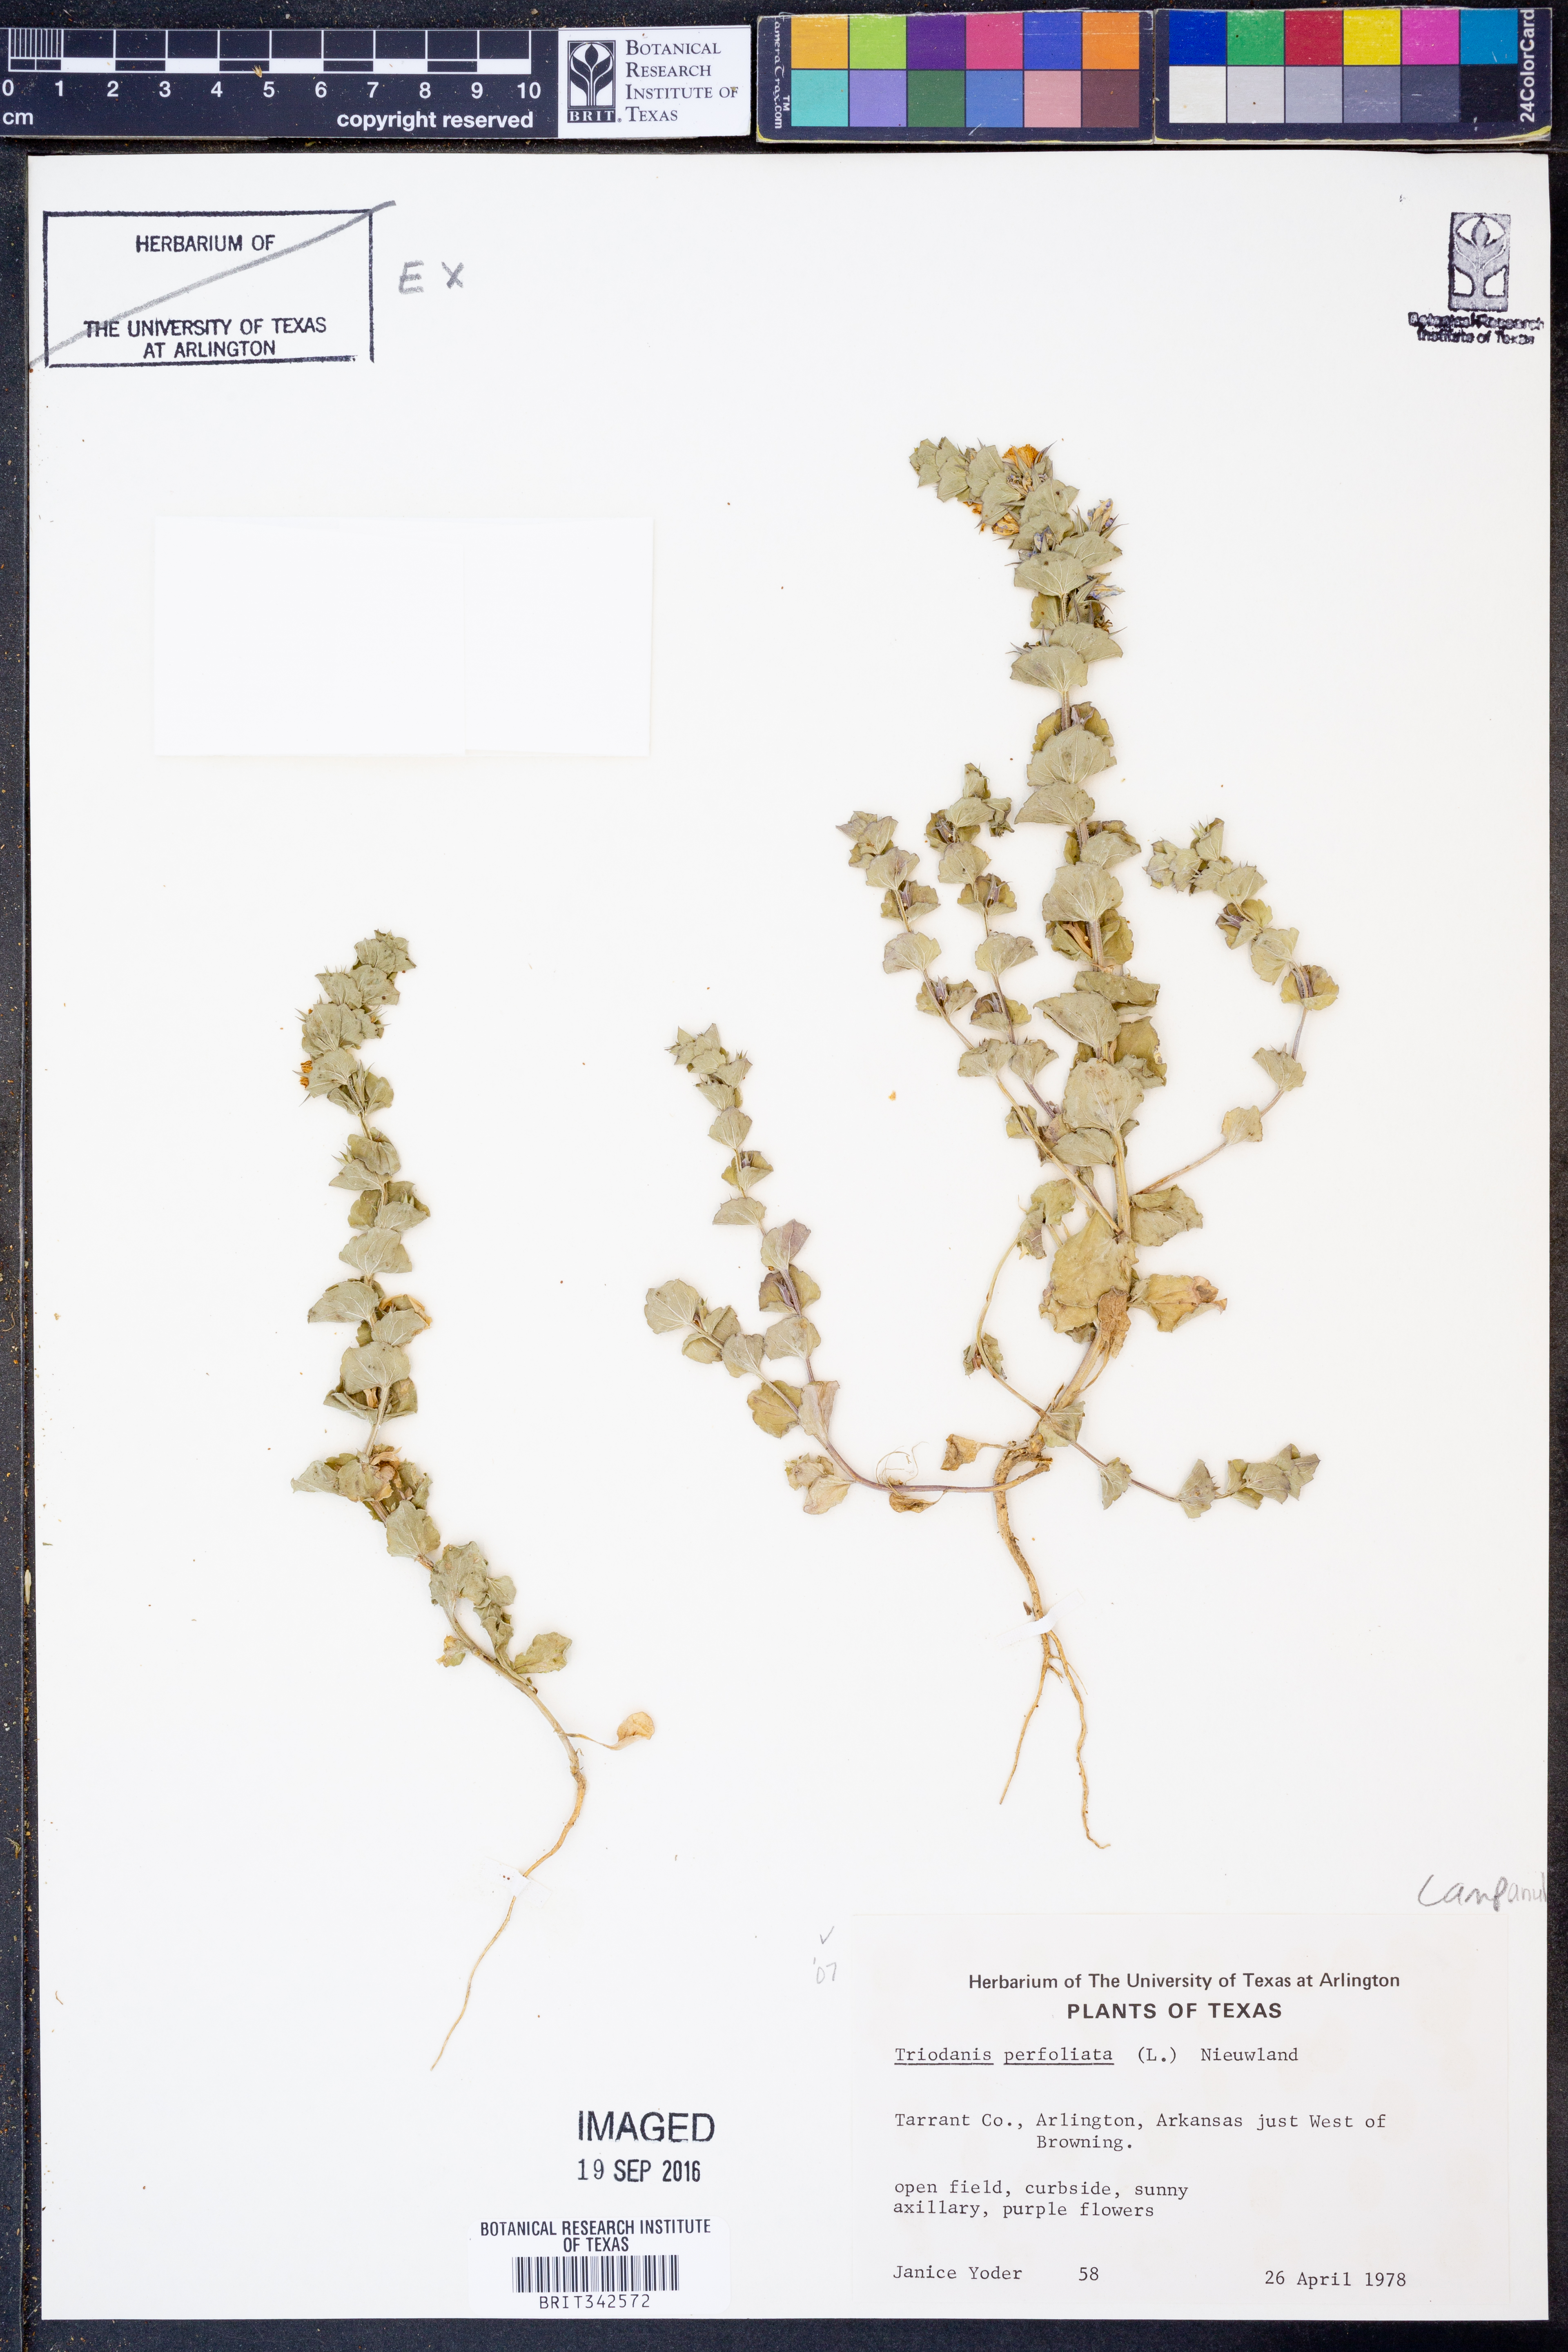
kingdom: Plantae
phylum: Tracheophyta
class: Magnoliopsida
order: Asterales
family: Campanulaceae
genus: Triodanis
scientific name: Triodanis perfoliata
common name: Clasping venus' looking-glass
